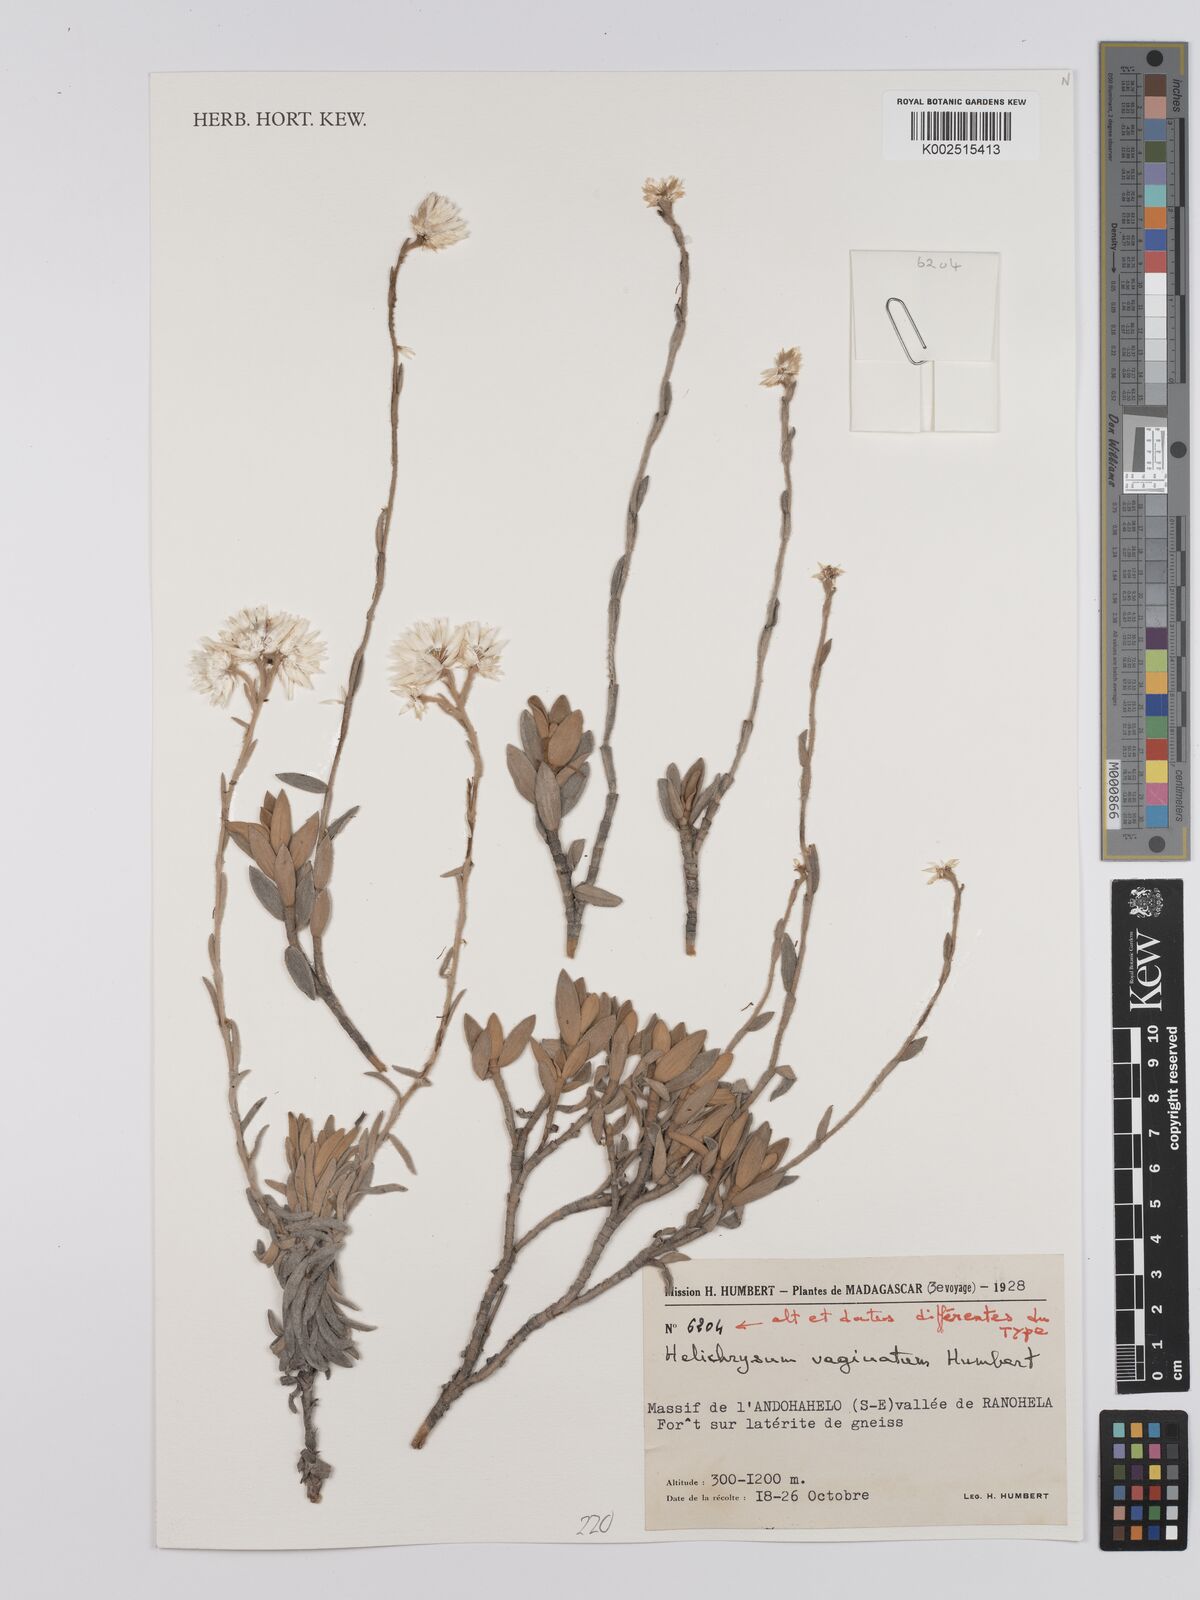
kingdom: Plantae
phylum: Tracheophyta
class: Magnoliopsida
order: Asterales
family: Asteraceae
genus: Helichrysum
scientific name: Helichrysum vaginatum
